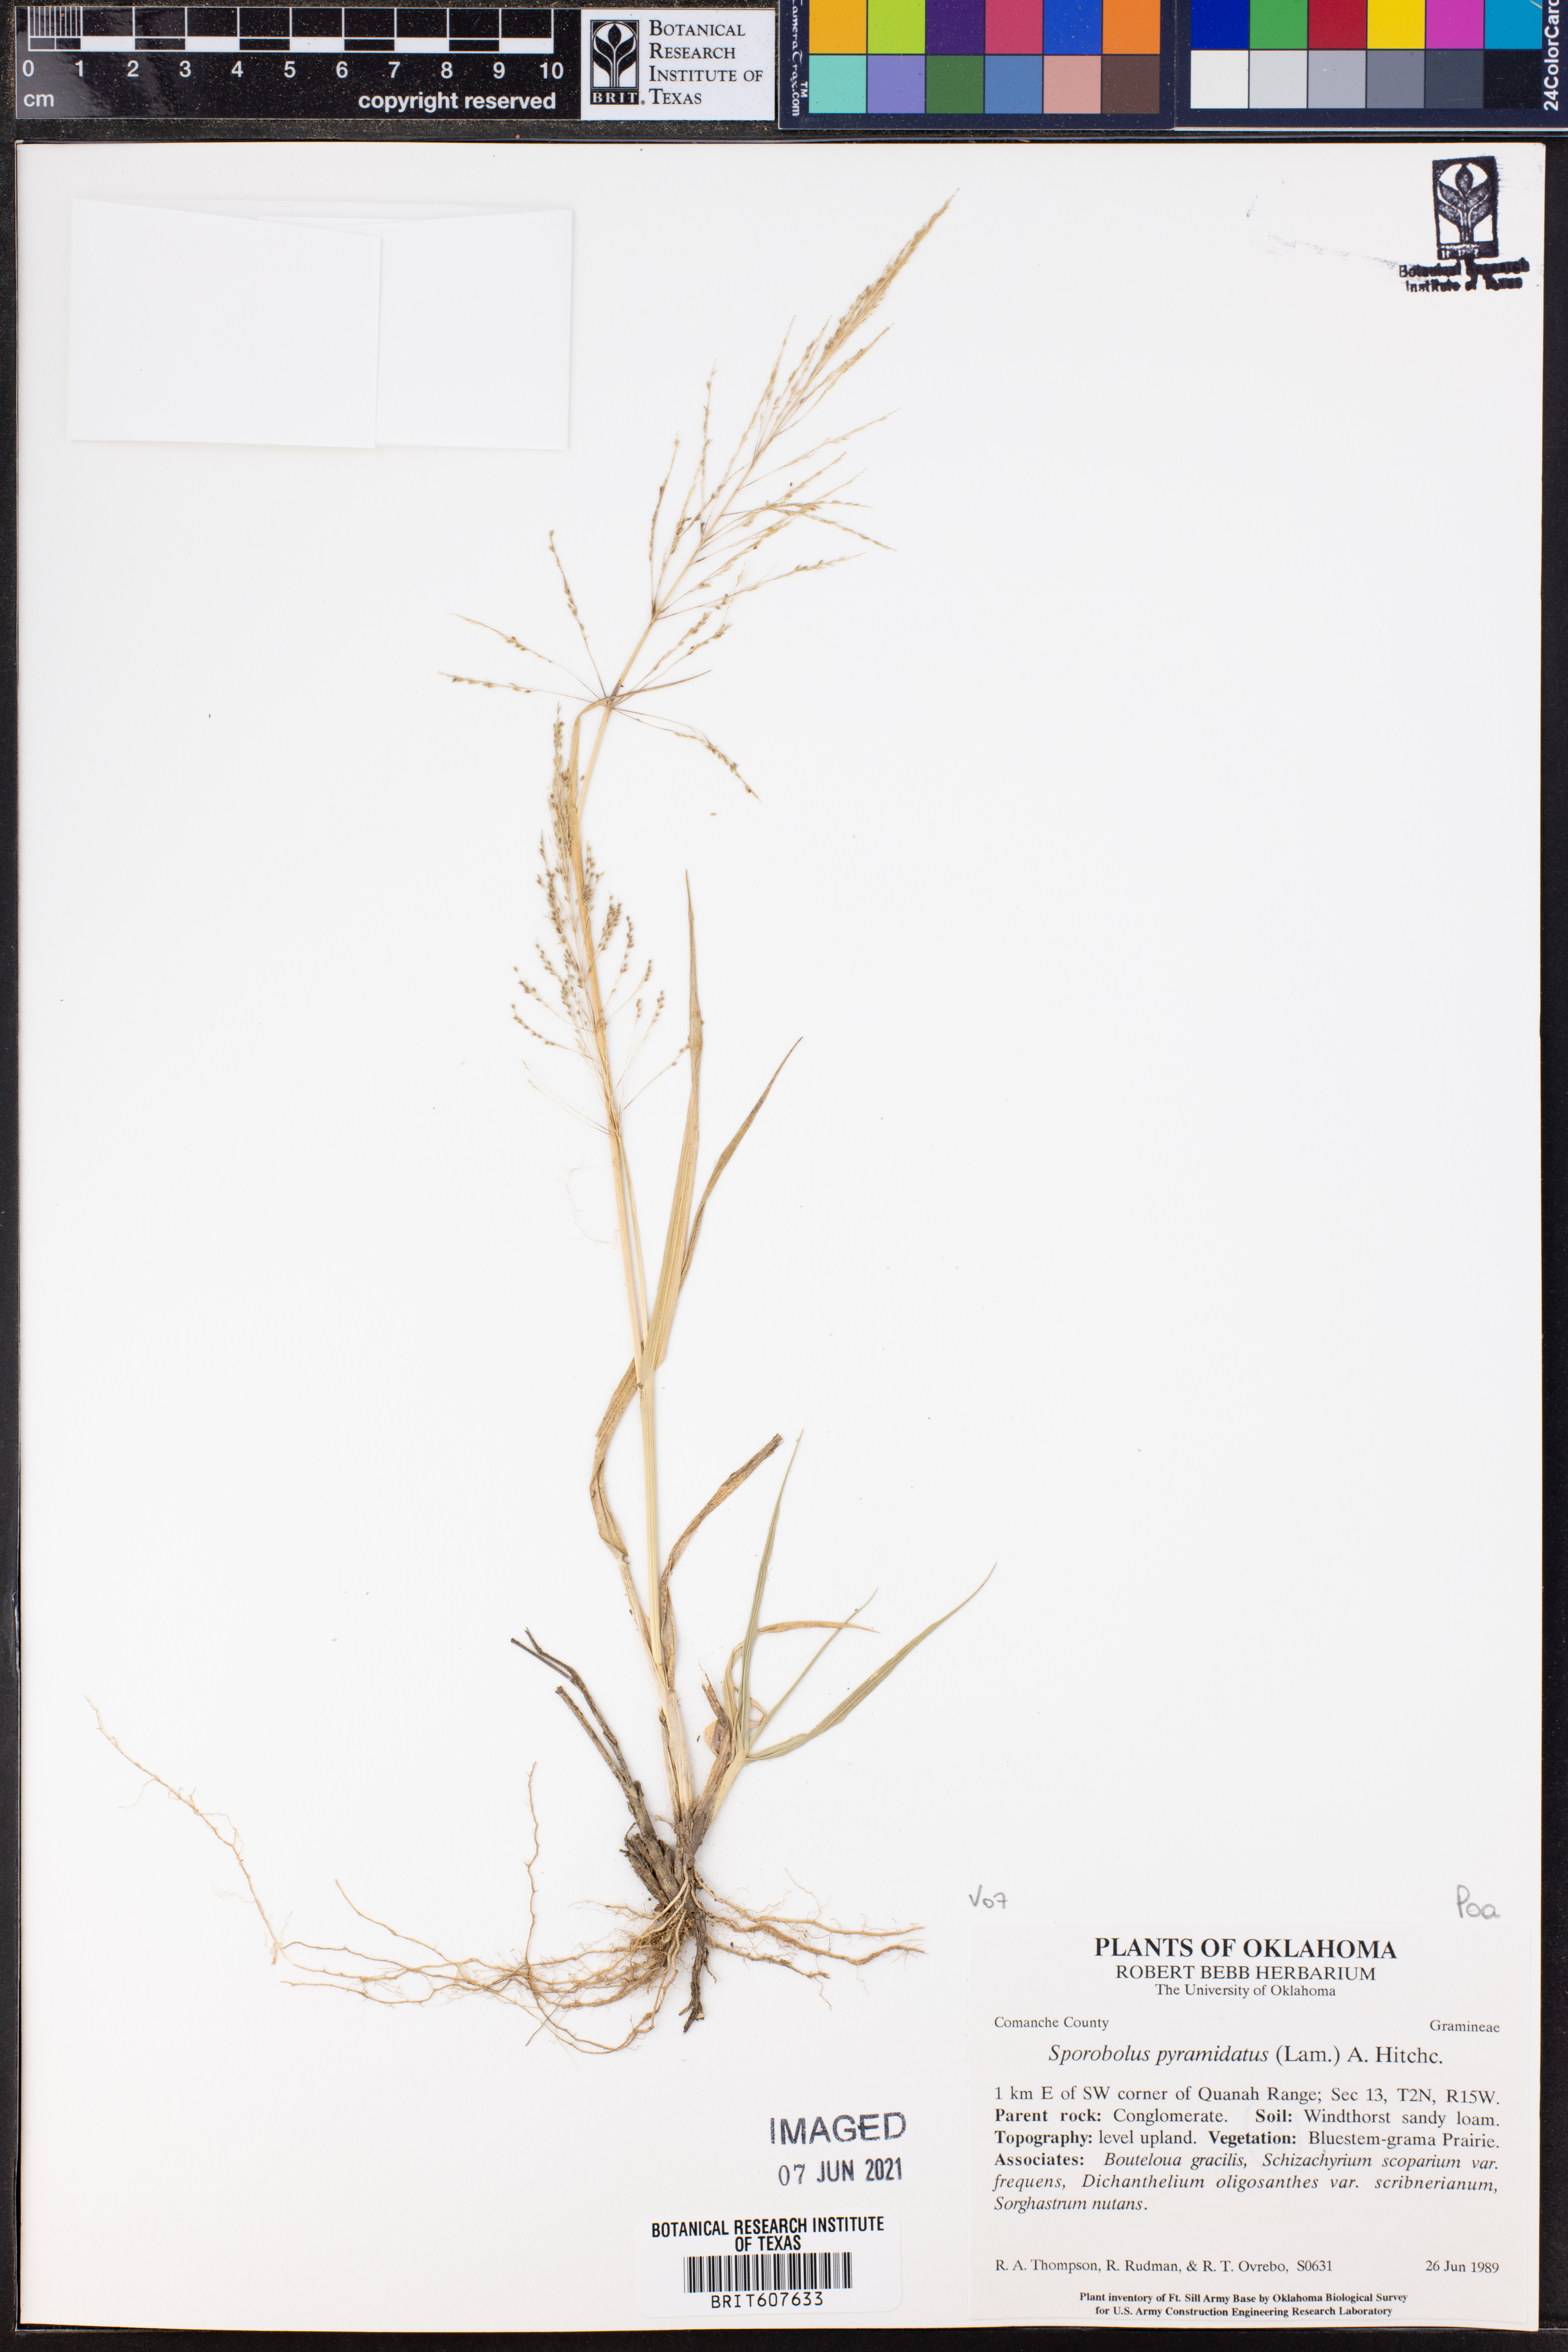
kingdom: Plantae
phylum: Tracheophyta
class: Liliopsida
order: Poales
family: Poaceae
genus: Sporobolus
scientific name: Sporobolus pyramidatus
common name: Whorled dropseed
